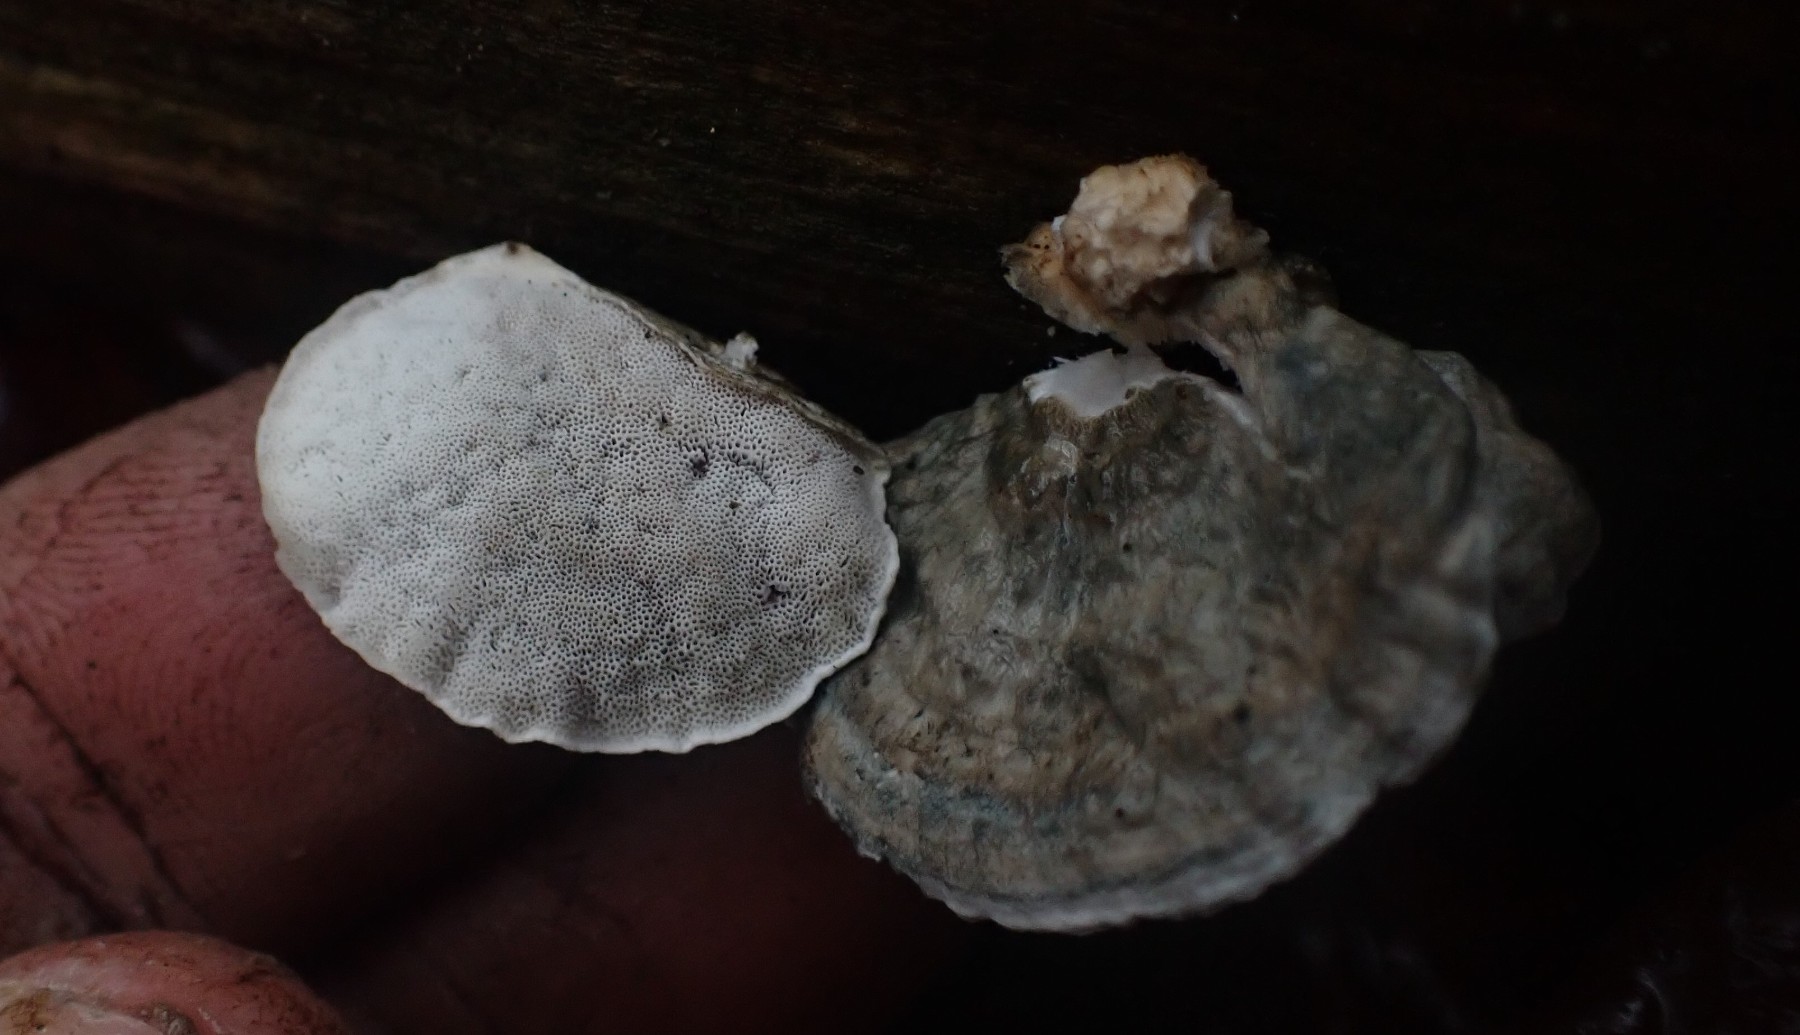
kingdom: Fungi
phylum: Basidiomycota
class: Agaricomycetes
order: Polyporales
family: Polyporaceae
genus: Cyanosporus
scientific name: Cyanosporus alni
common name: blegblå kødporesvamp
